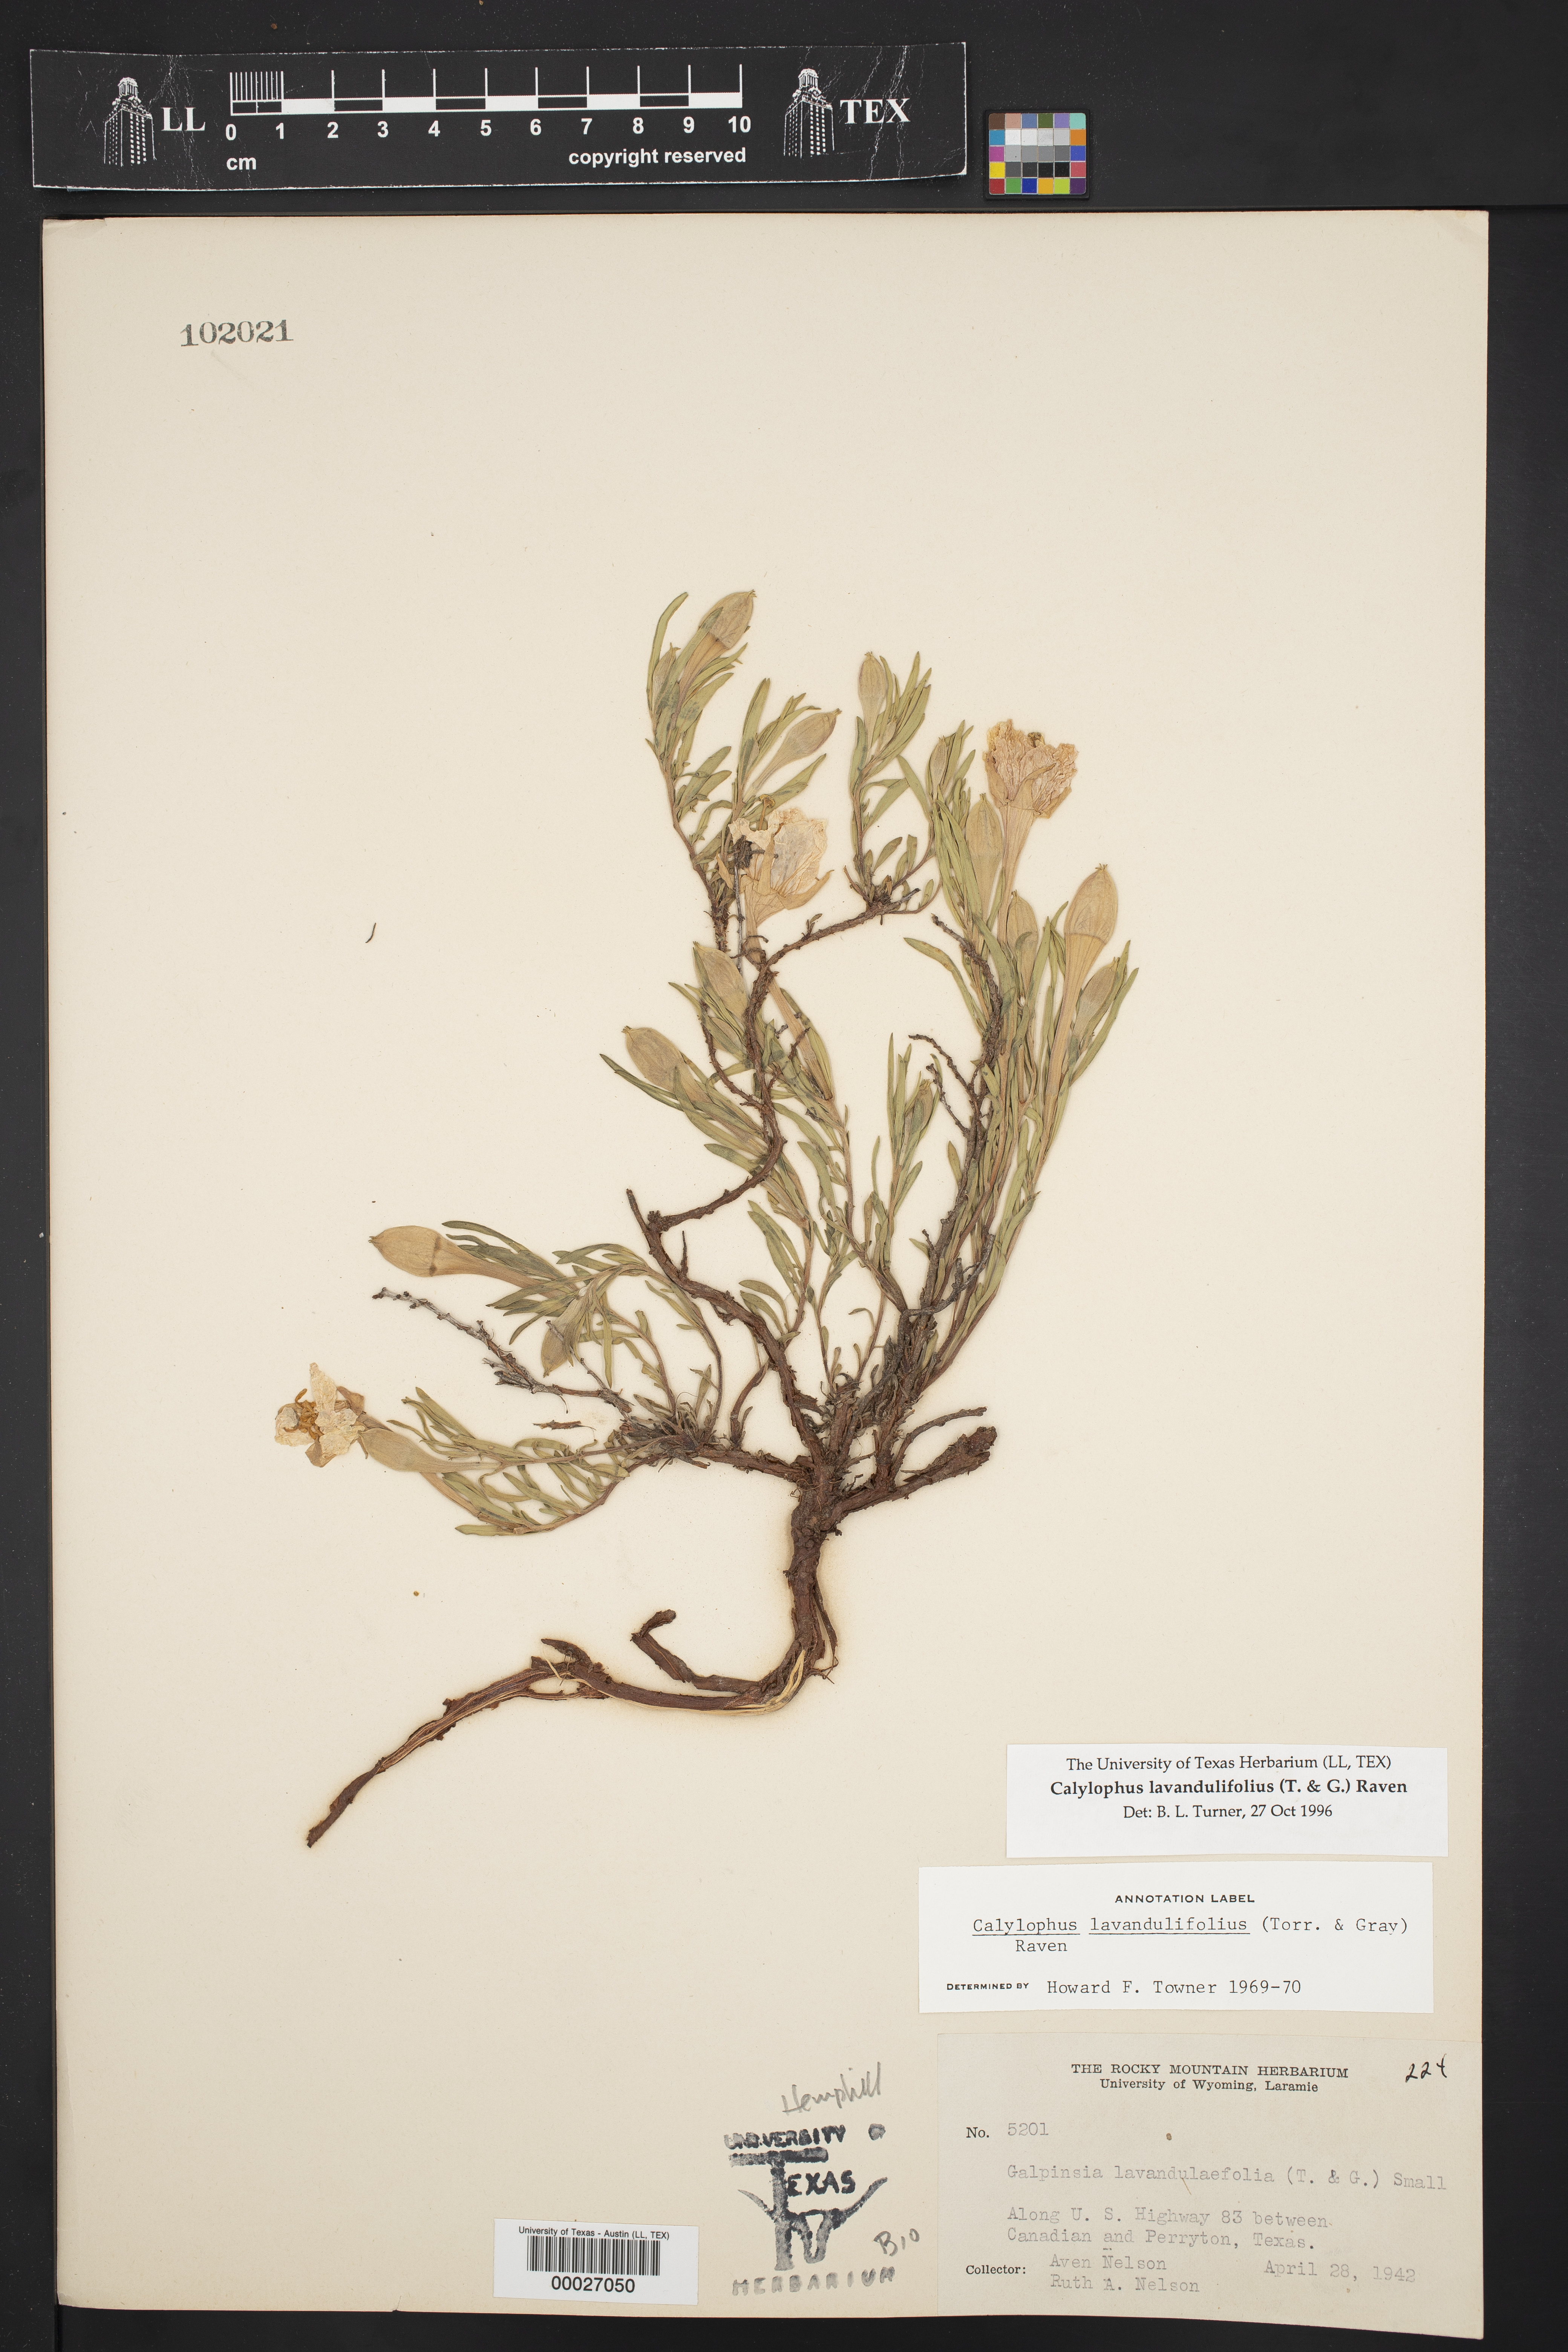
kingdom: Plantae
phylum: Tracheophyta
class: Magnoliopsida
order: Myrtales
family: Onagraceae
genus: Oenothera
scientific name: Oenothera lavandulifolia
